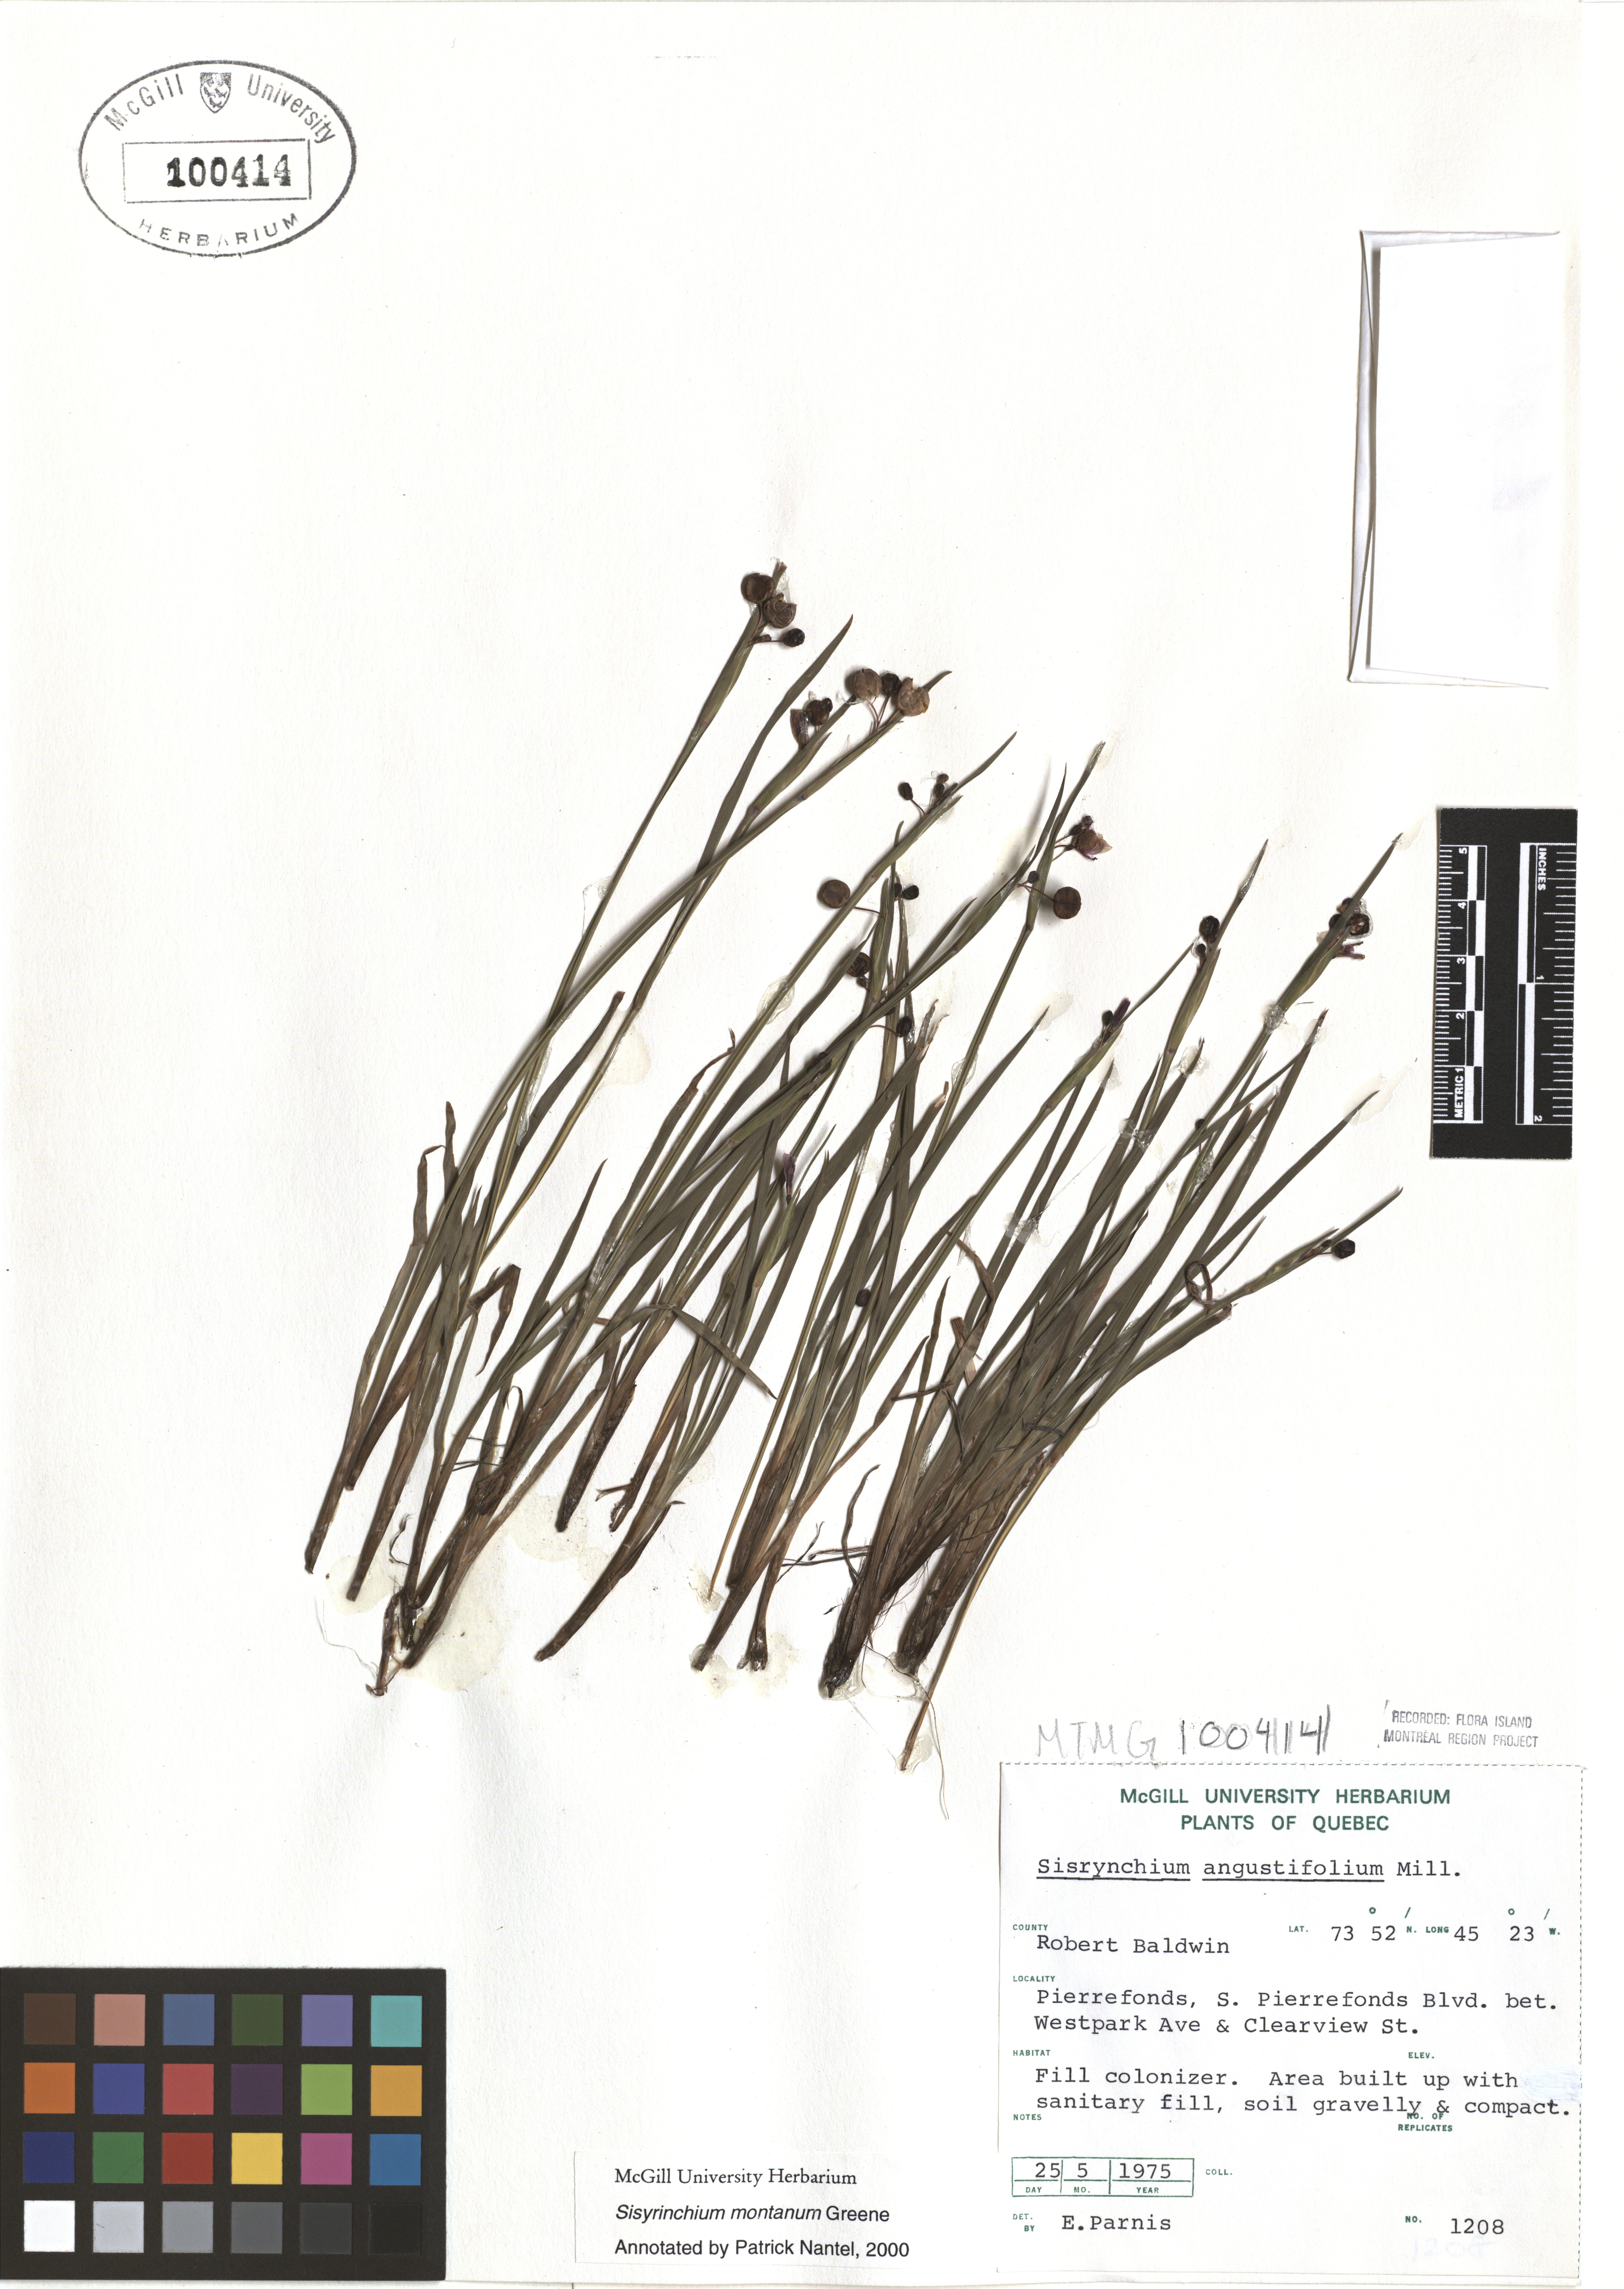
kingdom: Plantae
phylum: Tracheophyta
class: Liliopsida
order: Asparagales
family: Iridaceae
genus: Sisyrinchium
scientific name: Sisyrinchium montanum
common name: American blue-eyed-grass
